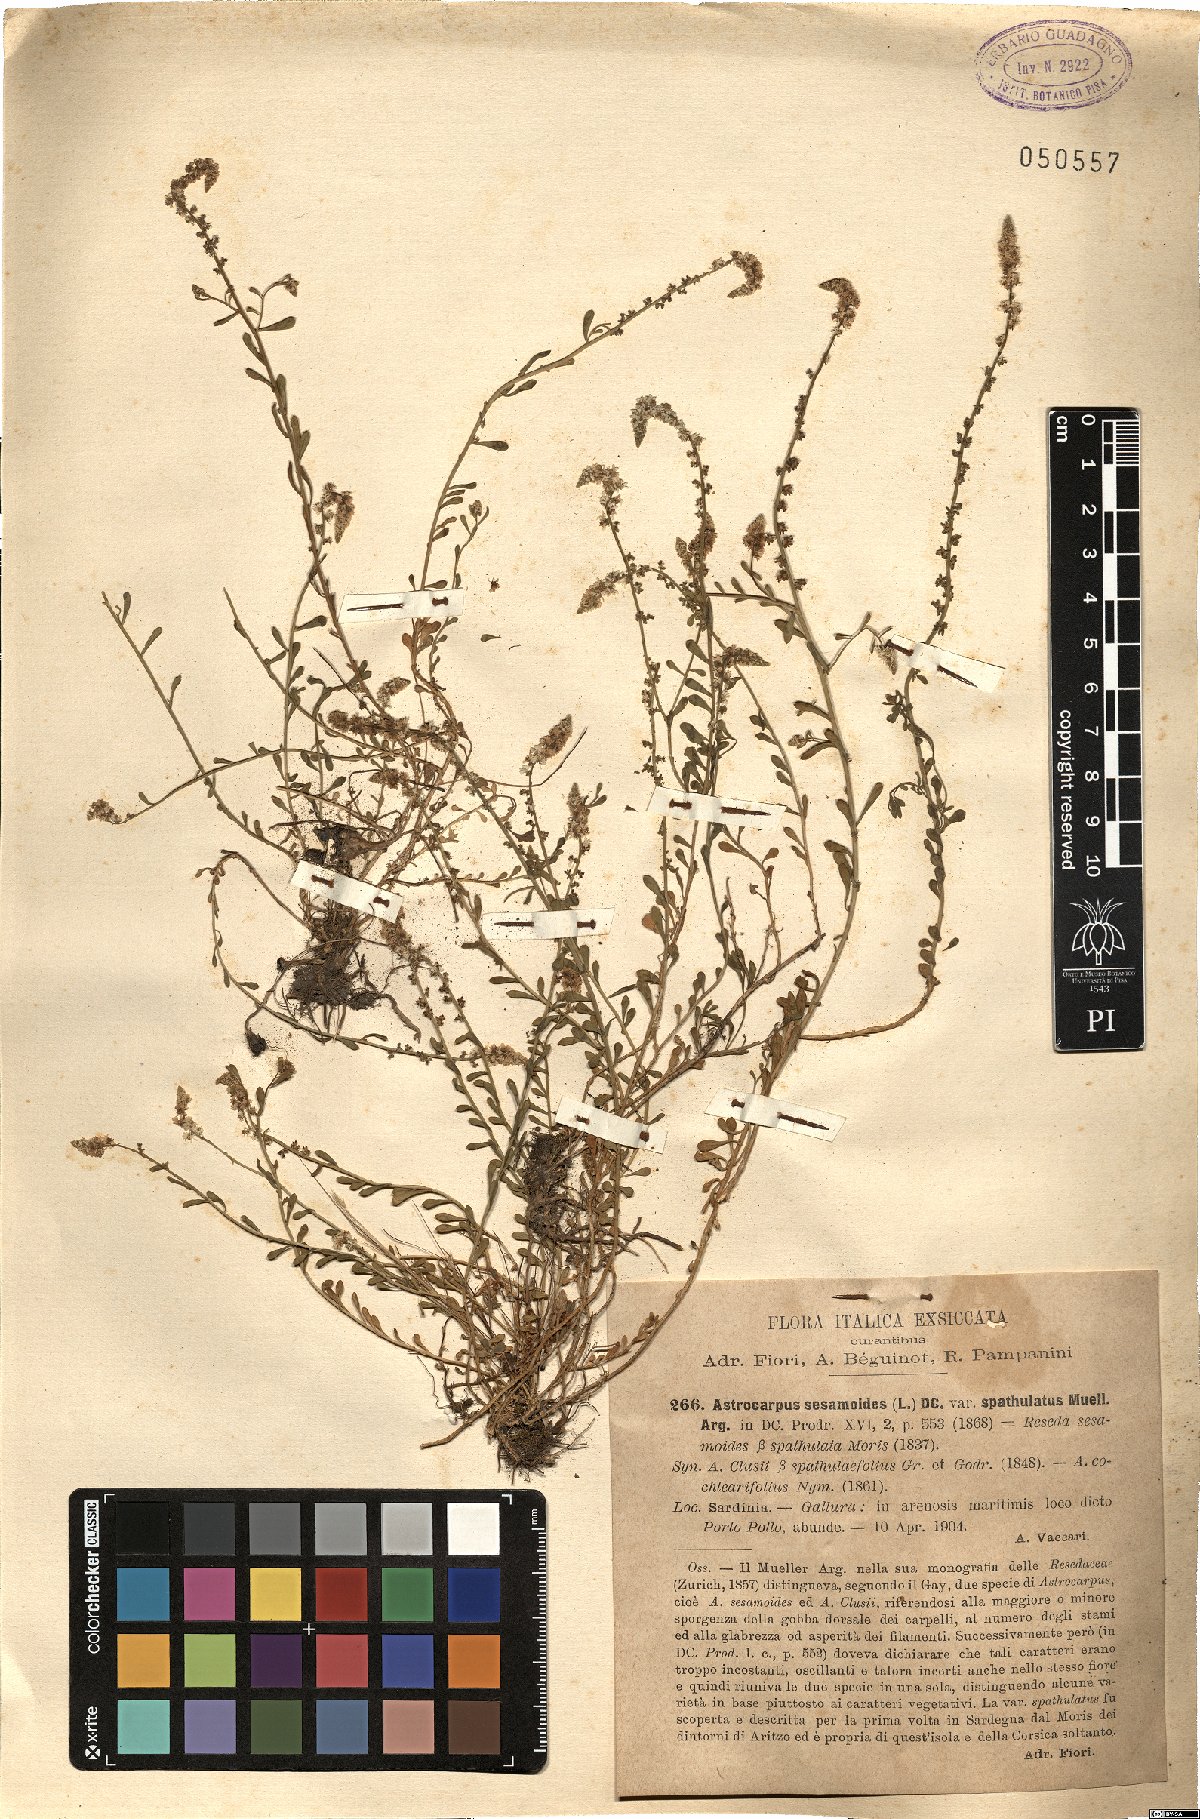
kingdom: Plantae
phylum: Tracheophyta
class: Magnoliopsida
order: Brassicales
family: Resedaceae
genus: Sesamoides
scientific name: Sesamoides spathulifolia
